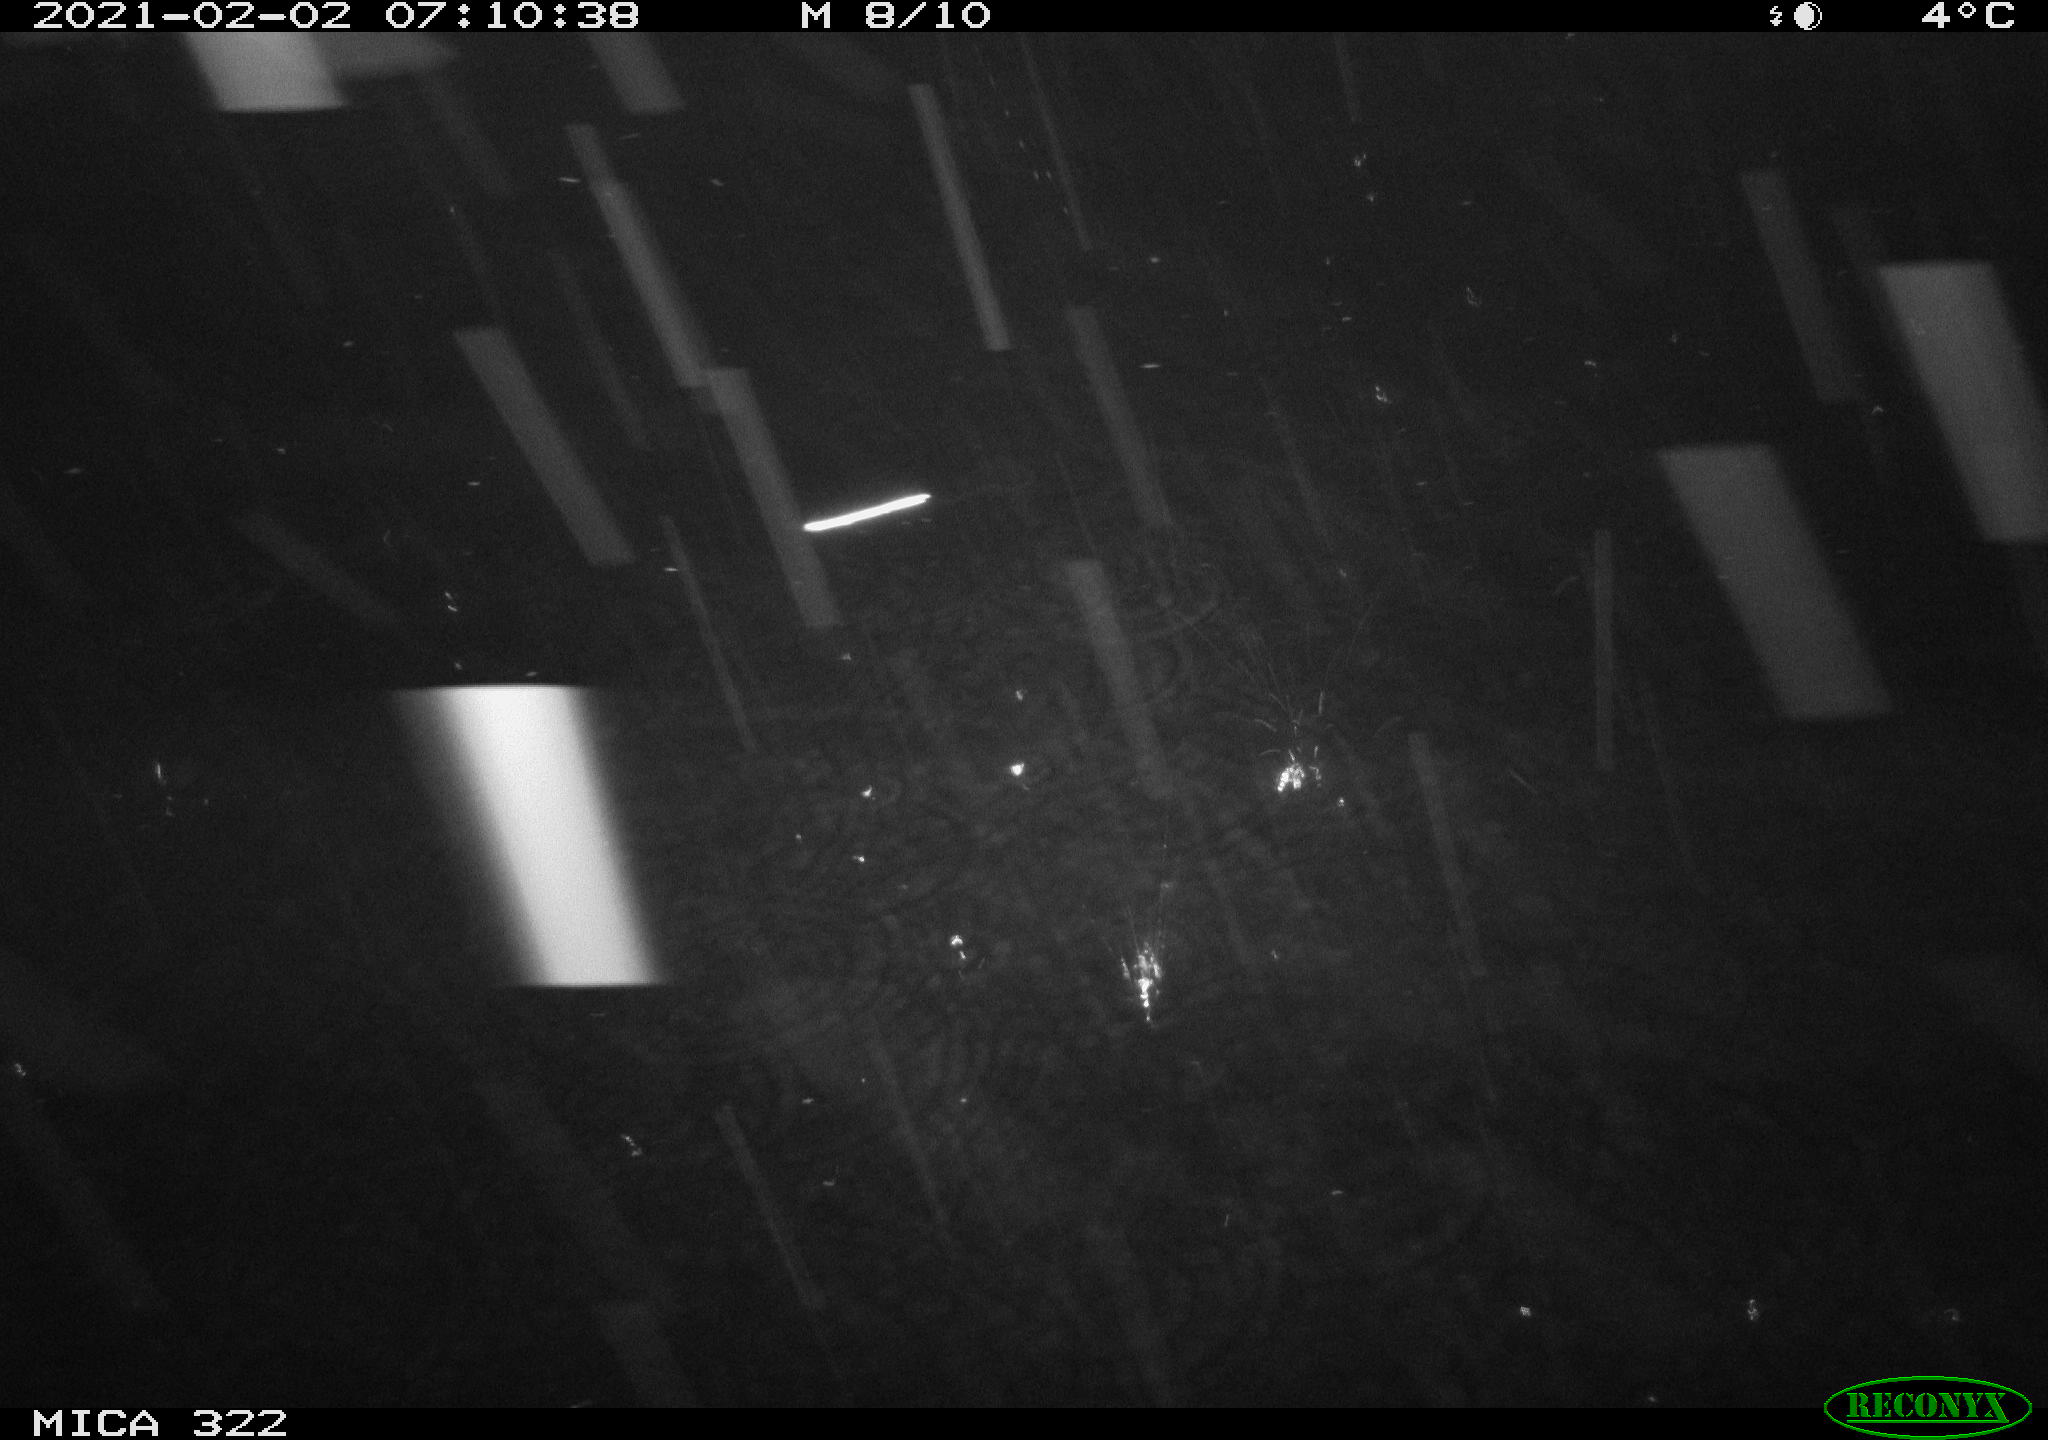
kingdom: Animalia
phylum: Chordata
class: Mammalia
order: Rodentia
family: Muridae
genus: Rattus
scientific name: Rattus norvegicus
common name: Brown rat
